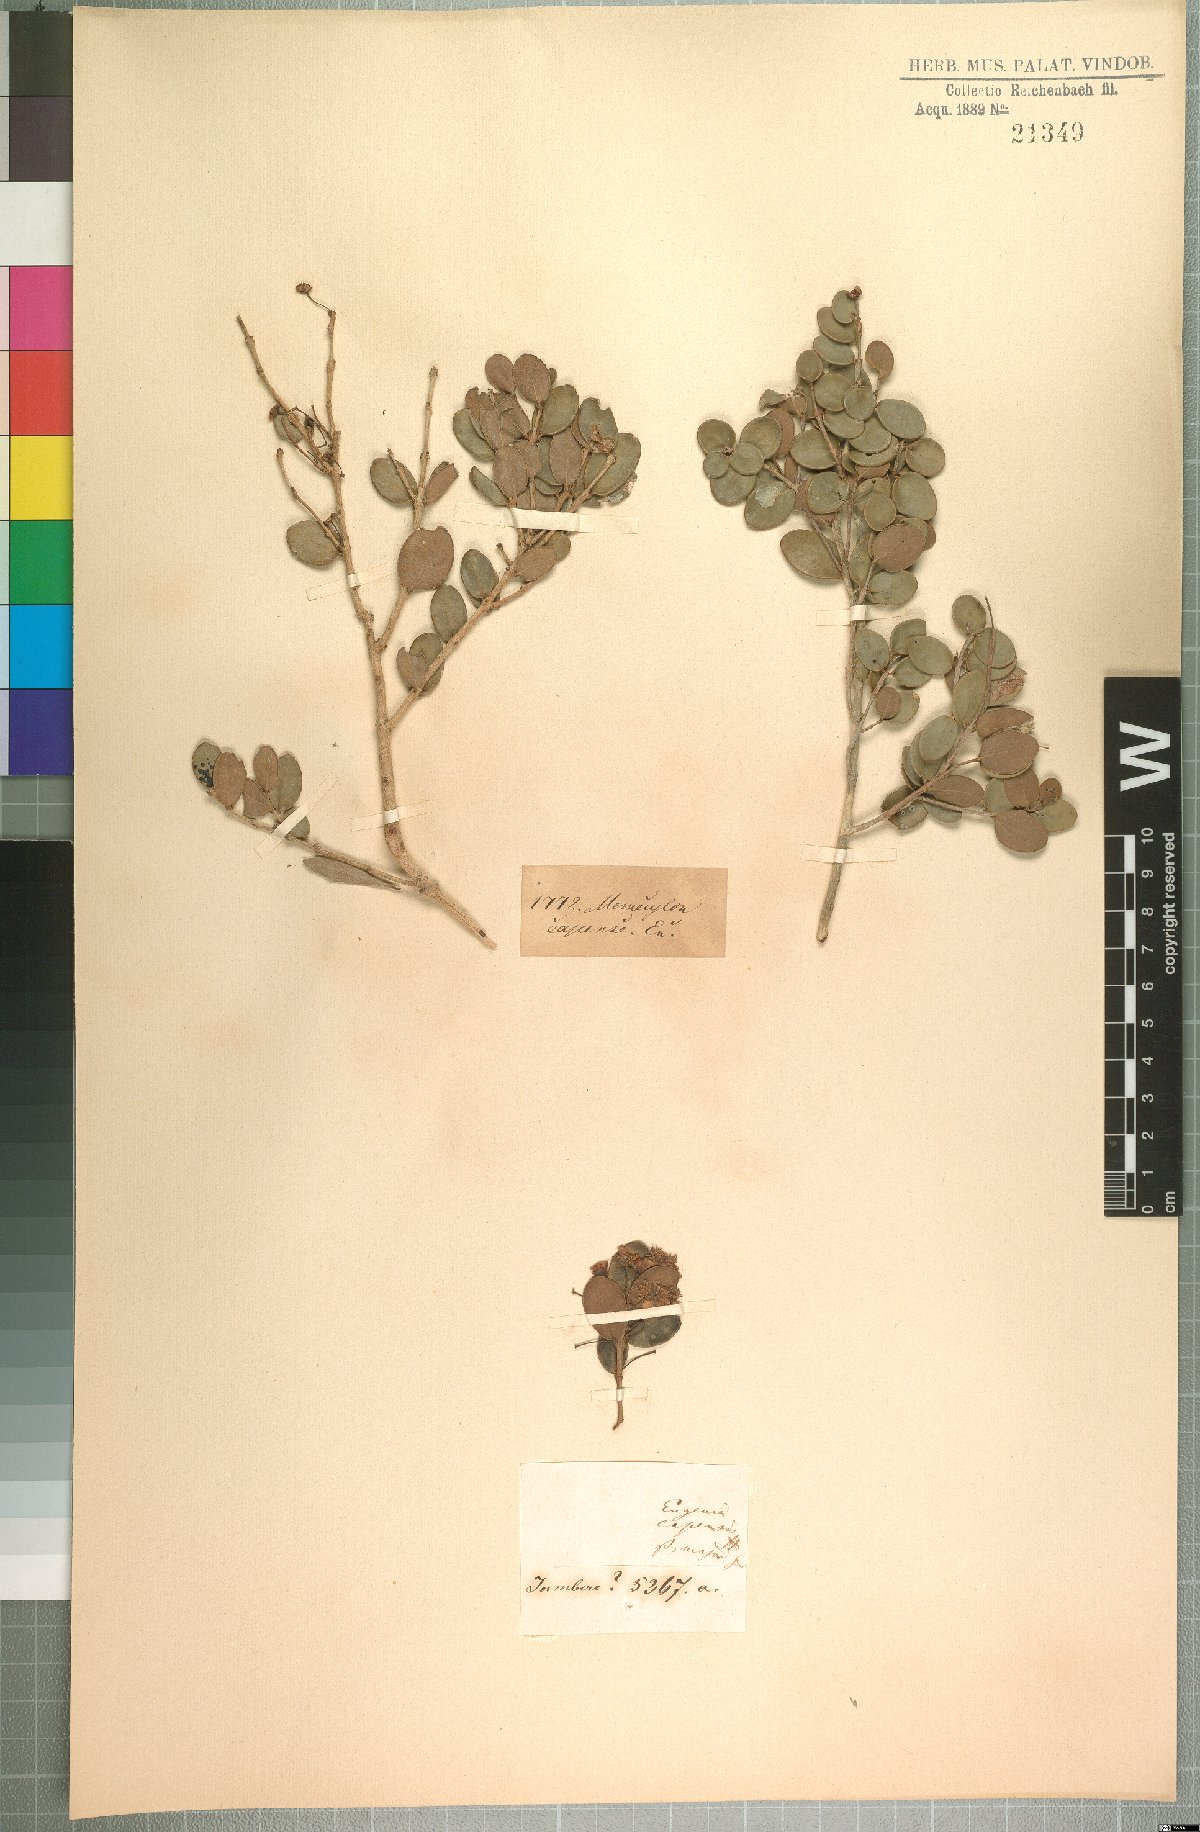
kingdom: Plantae
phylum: Tracheophyta
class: Magnoliopsida
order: Myrtales
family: Myrtaceae
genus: Eugenia
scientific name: Eugenia capensis
